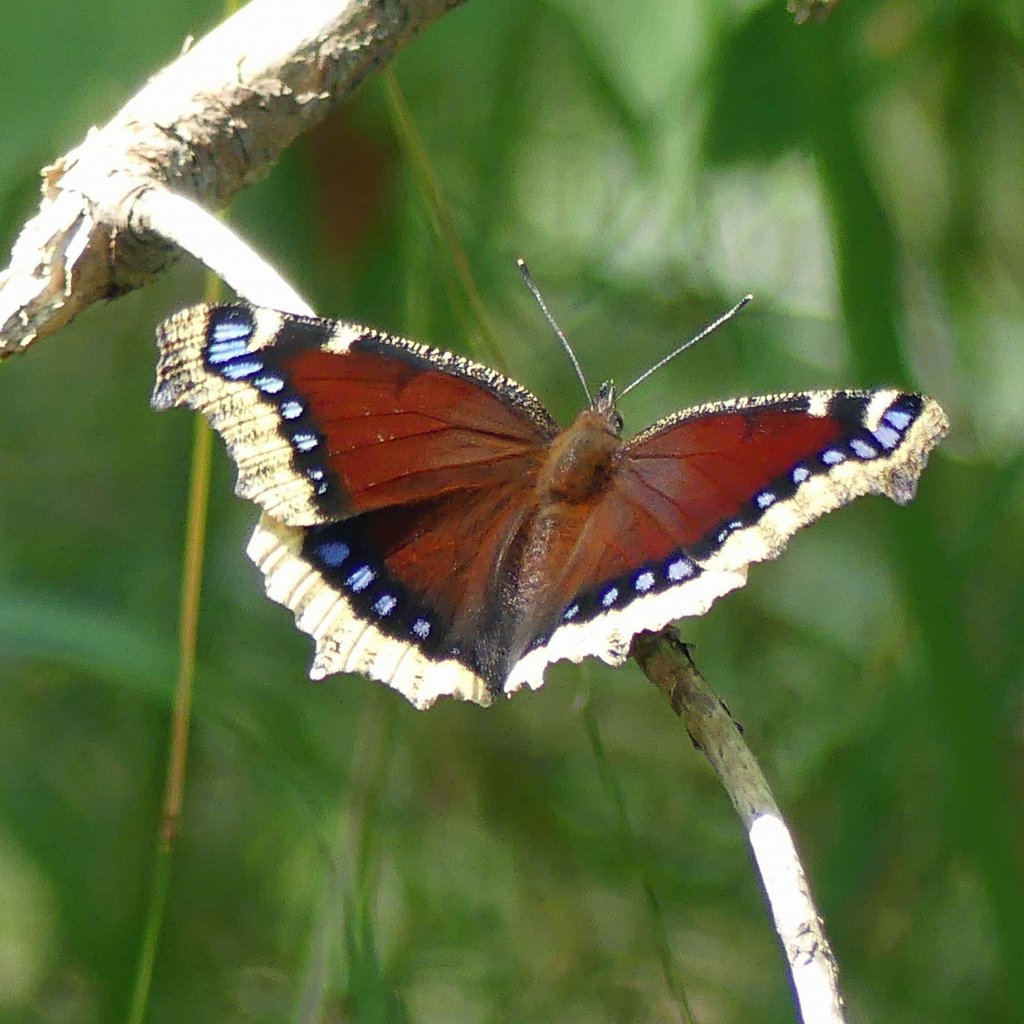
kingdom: Animalia
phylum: Arthropoda
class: Insecta
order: Lepidoptera
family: Nymphalidae
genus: Nymphalis
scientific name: Nymphalis antiopa
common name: Mourning Cloak
